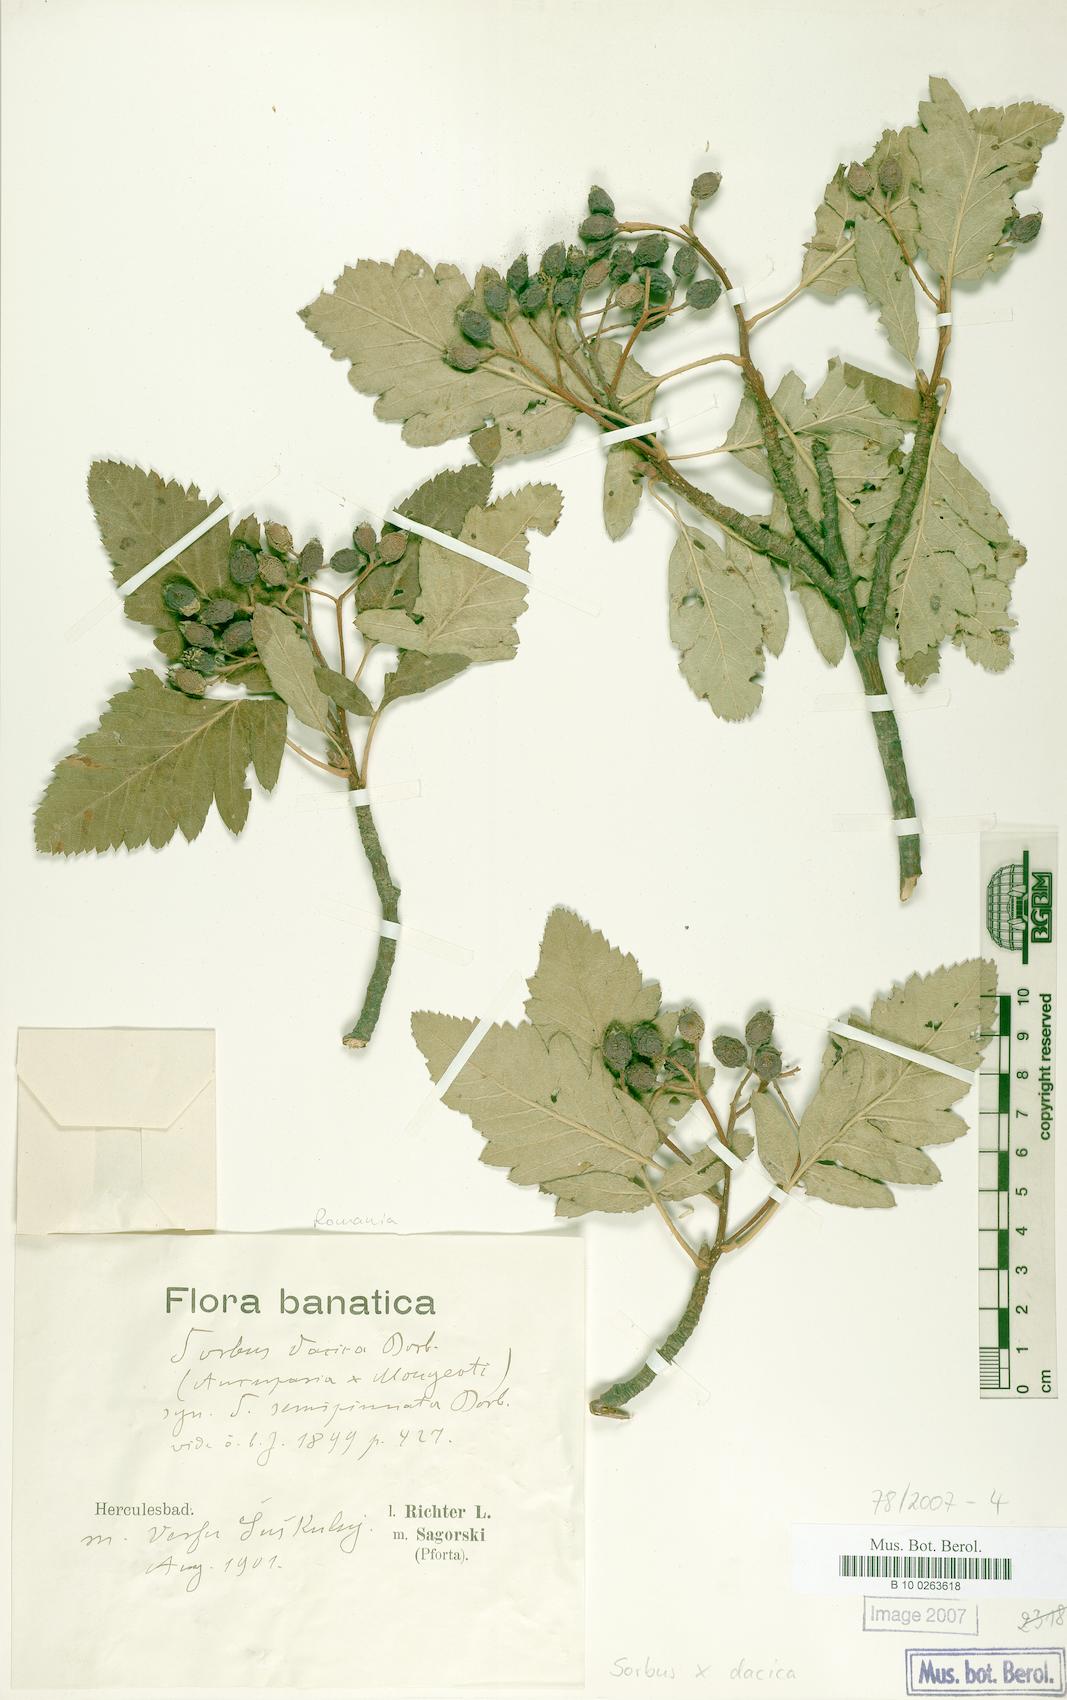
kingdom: Plantae
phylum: Tracheophyta
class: Magnoliopsida
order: Rosales
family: Rosaceae
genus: Hedlundia
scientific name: Hedlundia semipinnata
